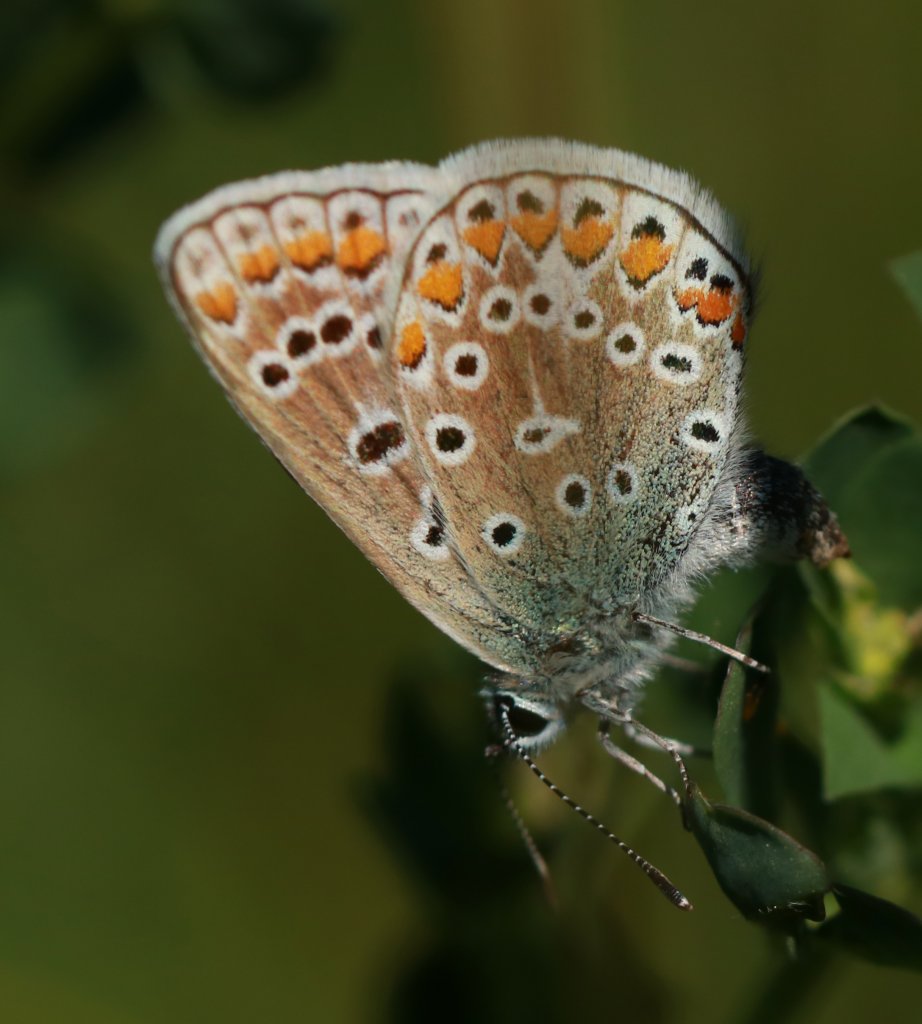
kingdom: Animalia
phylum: Arthropoda
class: Insecta
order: Lepidoptera
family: Lycaenidae
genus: Polyommatus
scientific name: Polyommatus icarus
